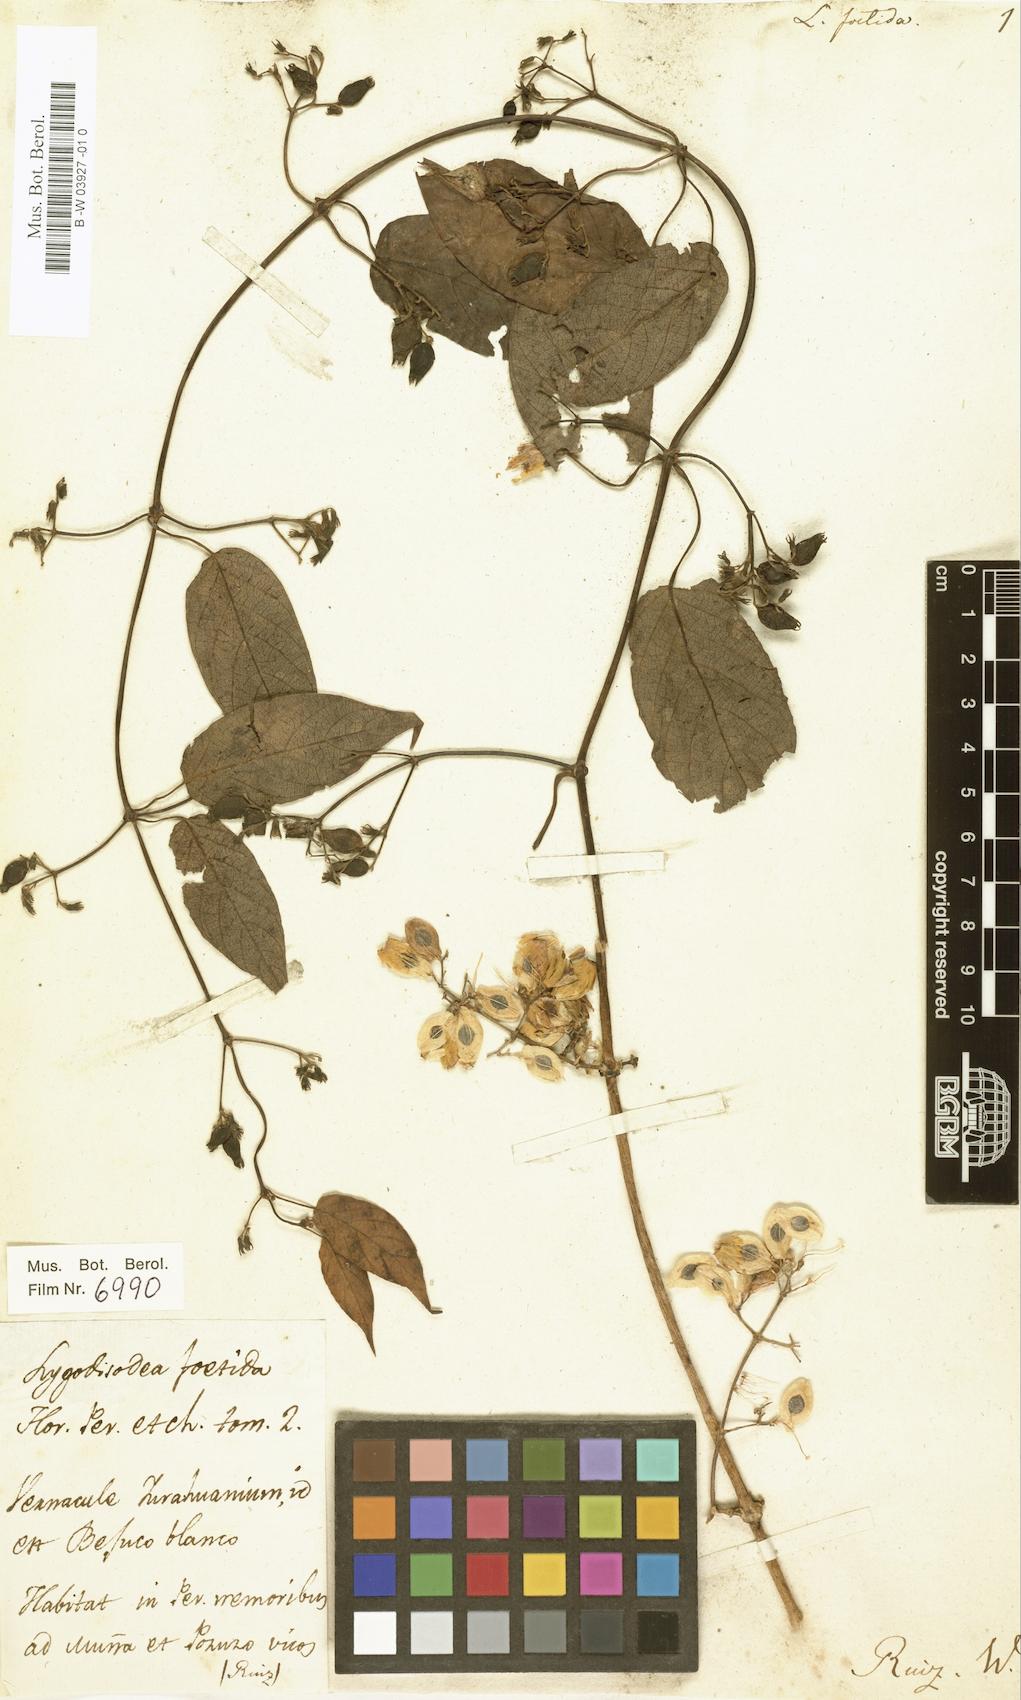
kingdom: Plantae
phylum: Tracheophyta
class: Magnoliopsida
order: Gentianales
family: Rubiaceae
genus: Paederia
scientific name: Paederia brasiliensis
